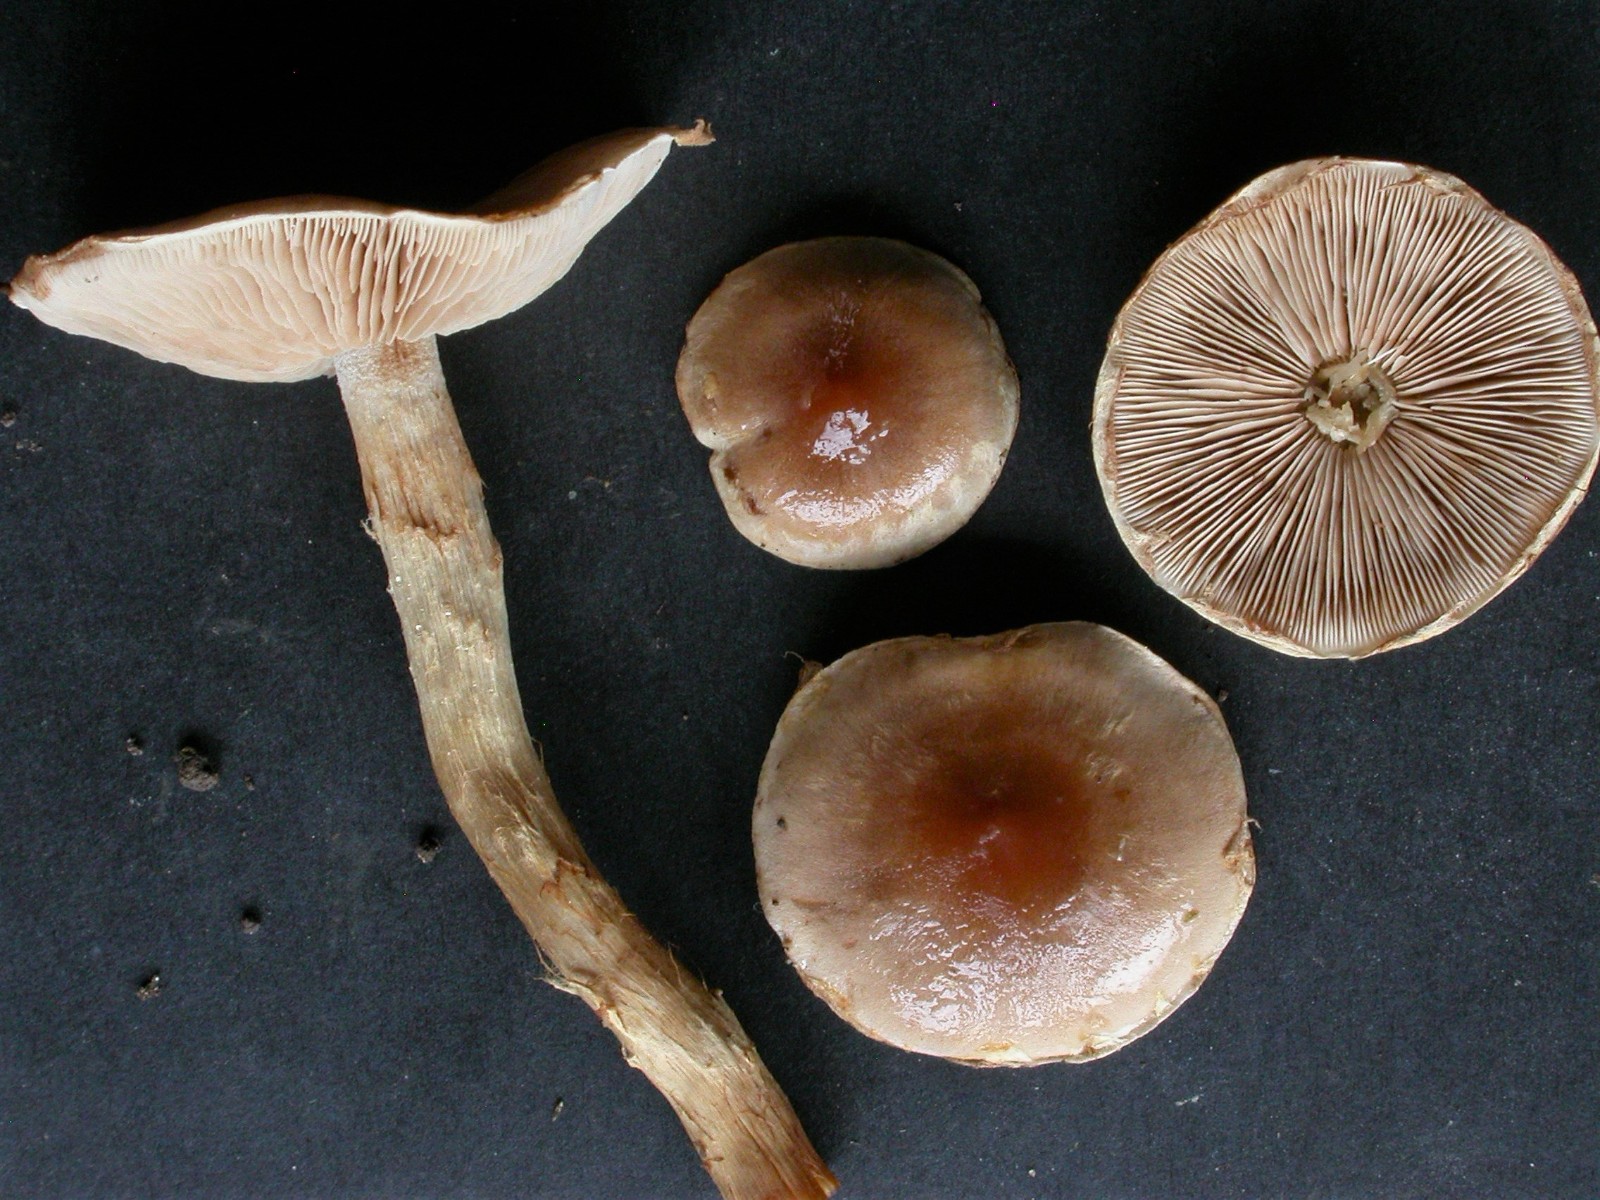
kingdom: Fungi
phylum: Basidiomycota
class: Agaricomycetes
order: Agaricales
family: Hymenogastraceae
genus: Hebeloma
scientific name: Hebeloma mesophaeum
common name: lerbrun tåreblad
